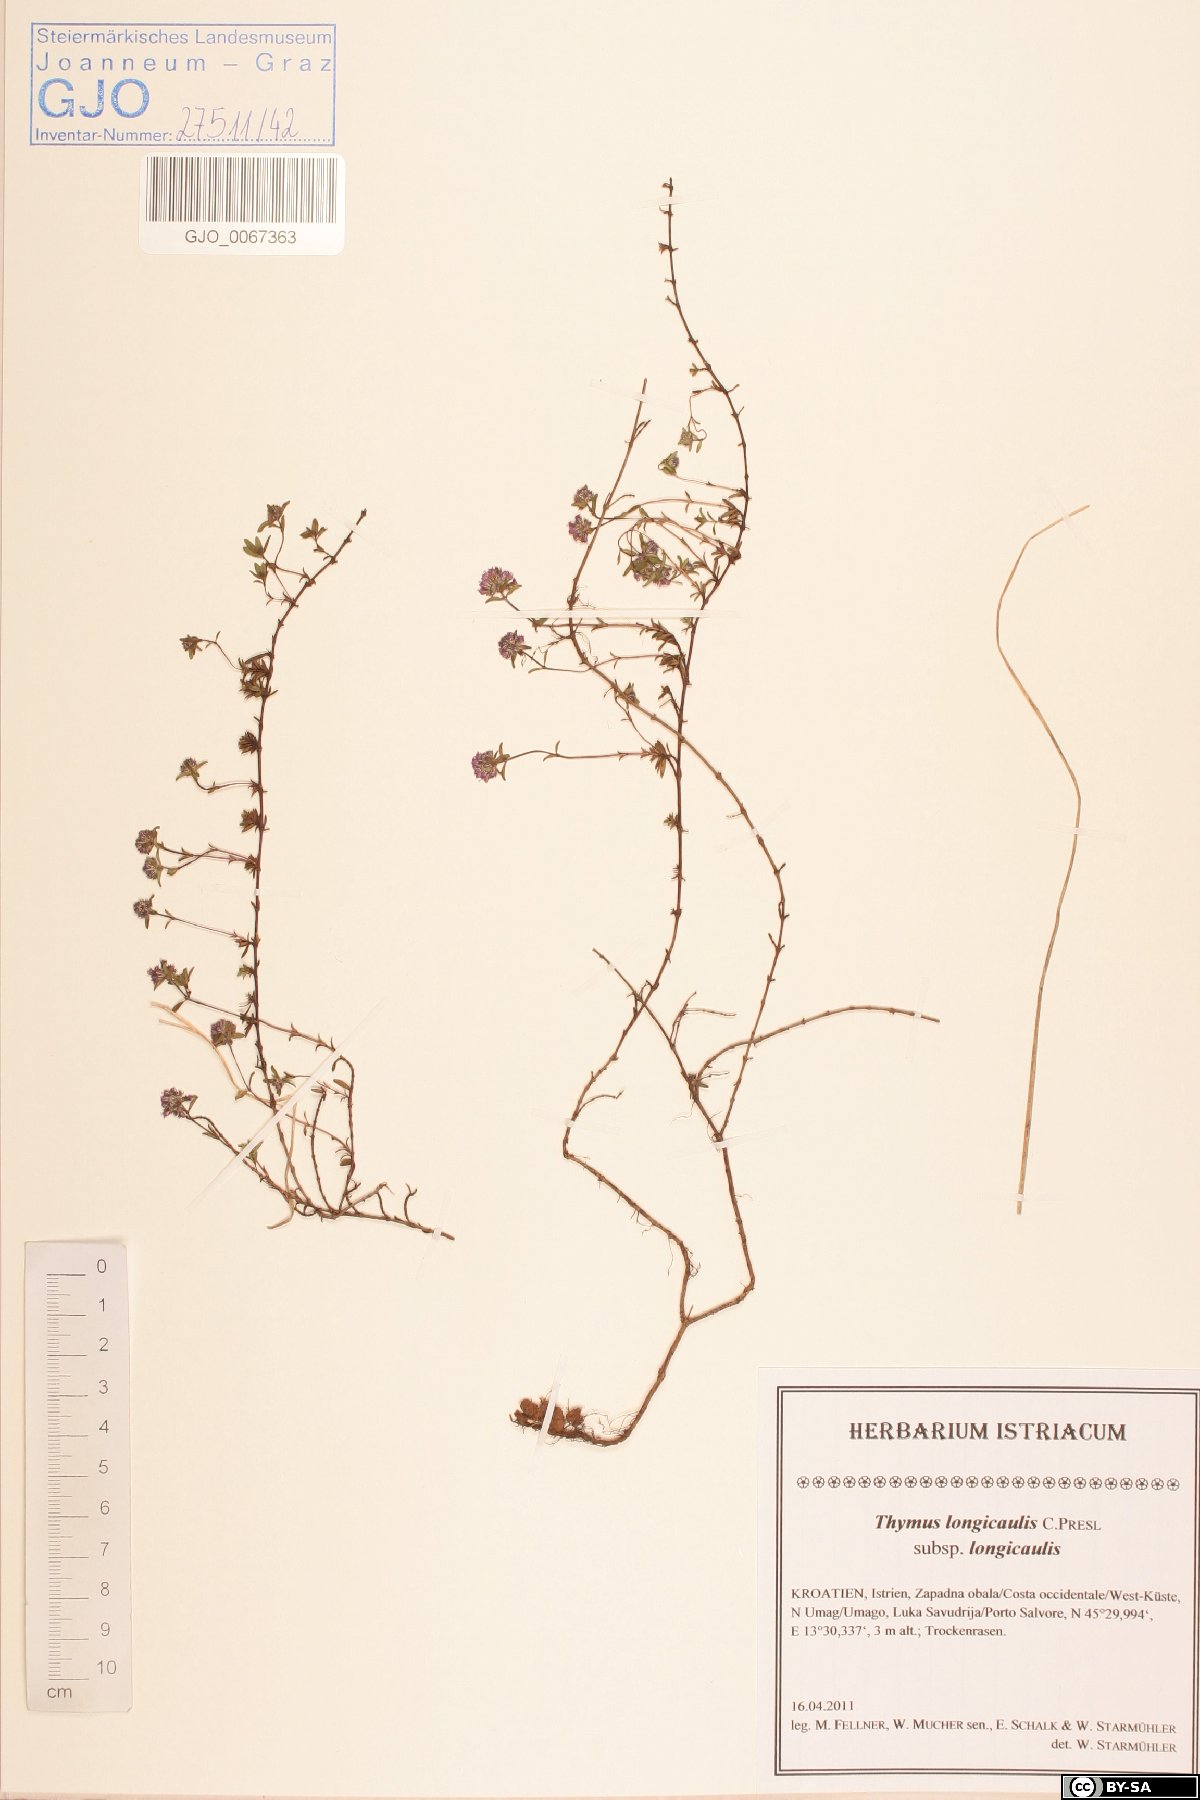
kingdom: Plantae
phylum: Tracheophyta
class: Magnoliopsida
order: Lamiales
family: Lamiaceae
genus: Thymus
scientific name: Thymus longicaulis
